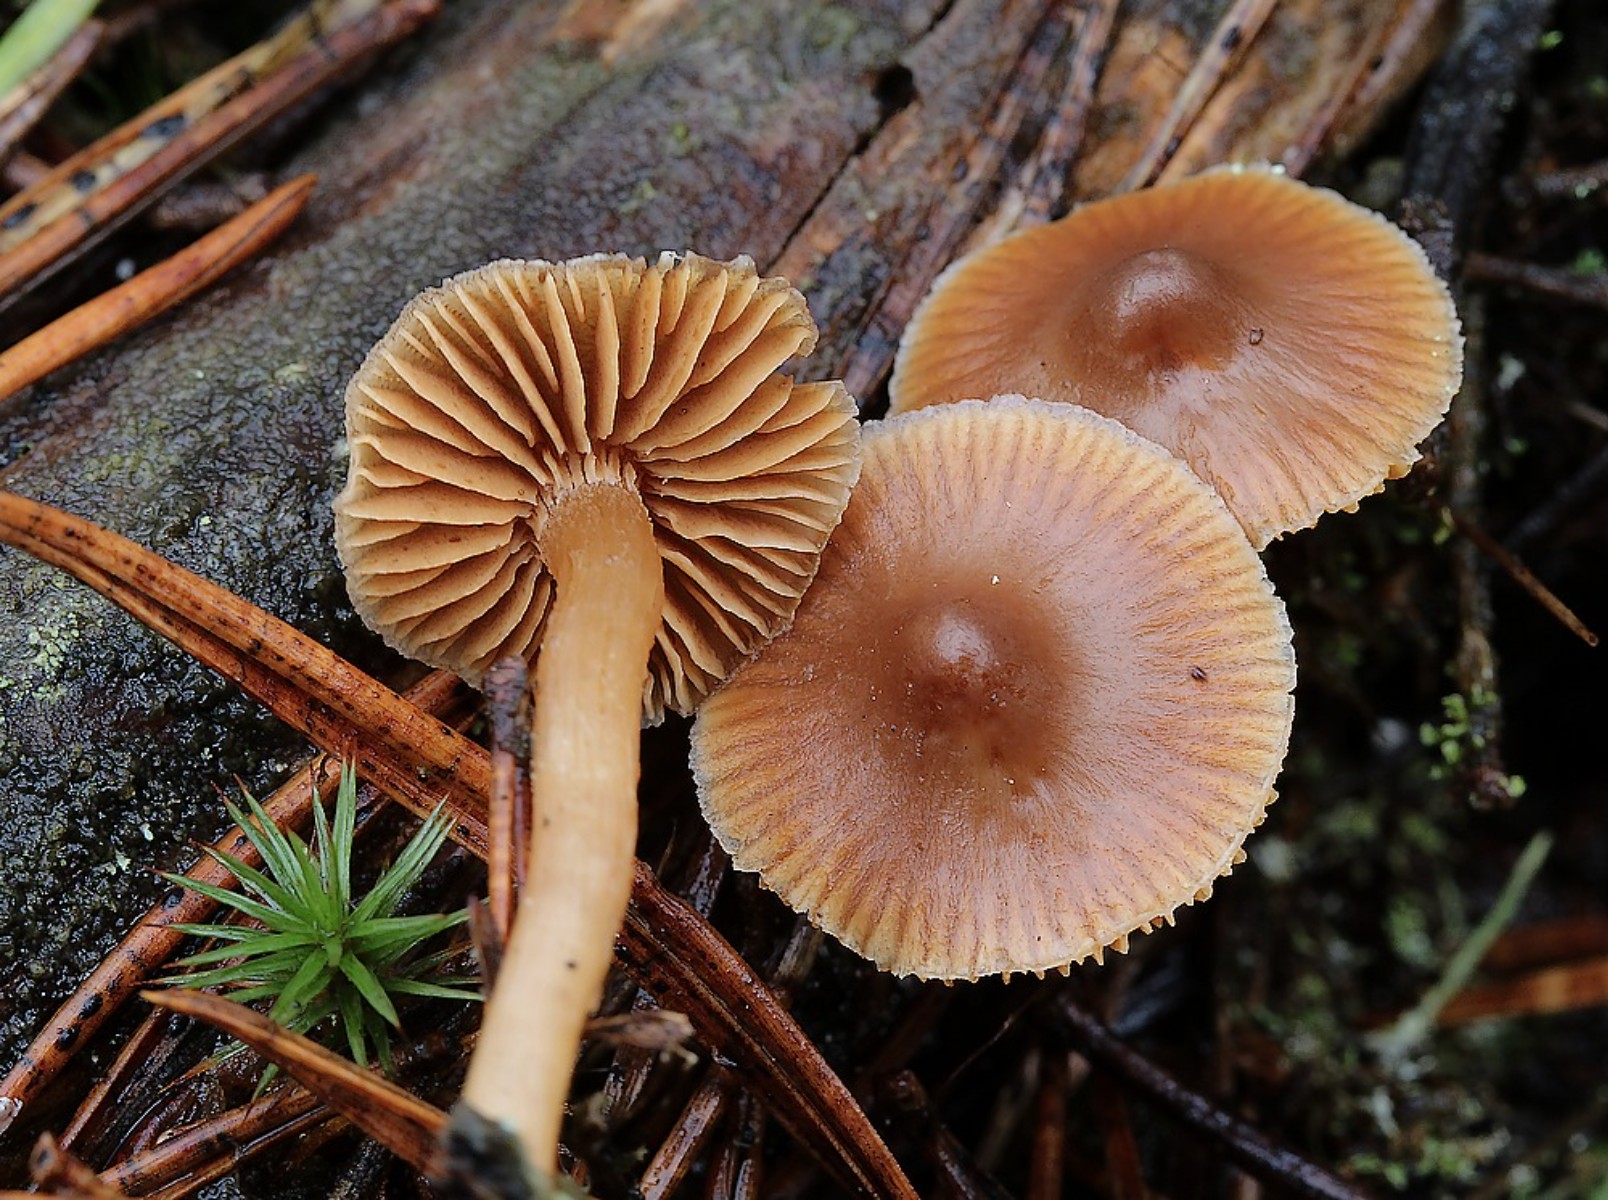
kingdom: Fungi
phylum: Basidiomycota
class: Agaricomycetes
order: Agaricales
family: Cortinariaceae
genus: Cortinarius
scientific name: Cortinarius
